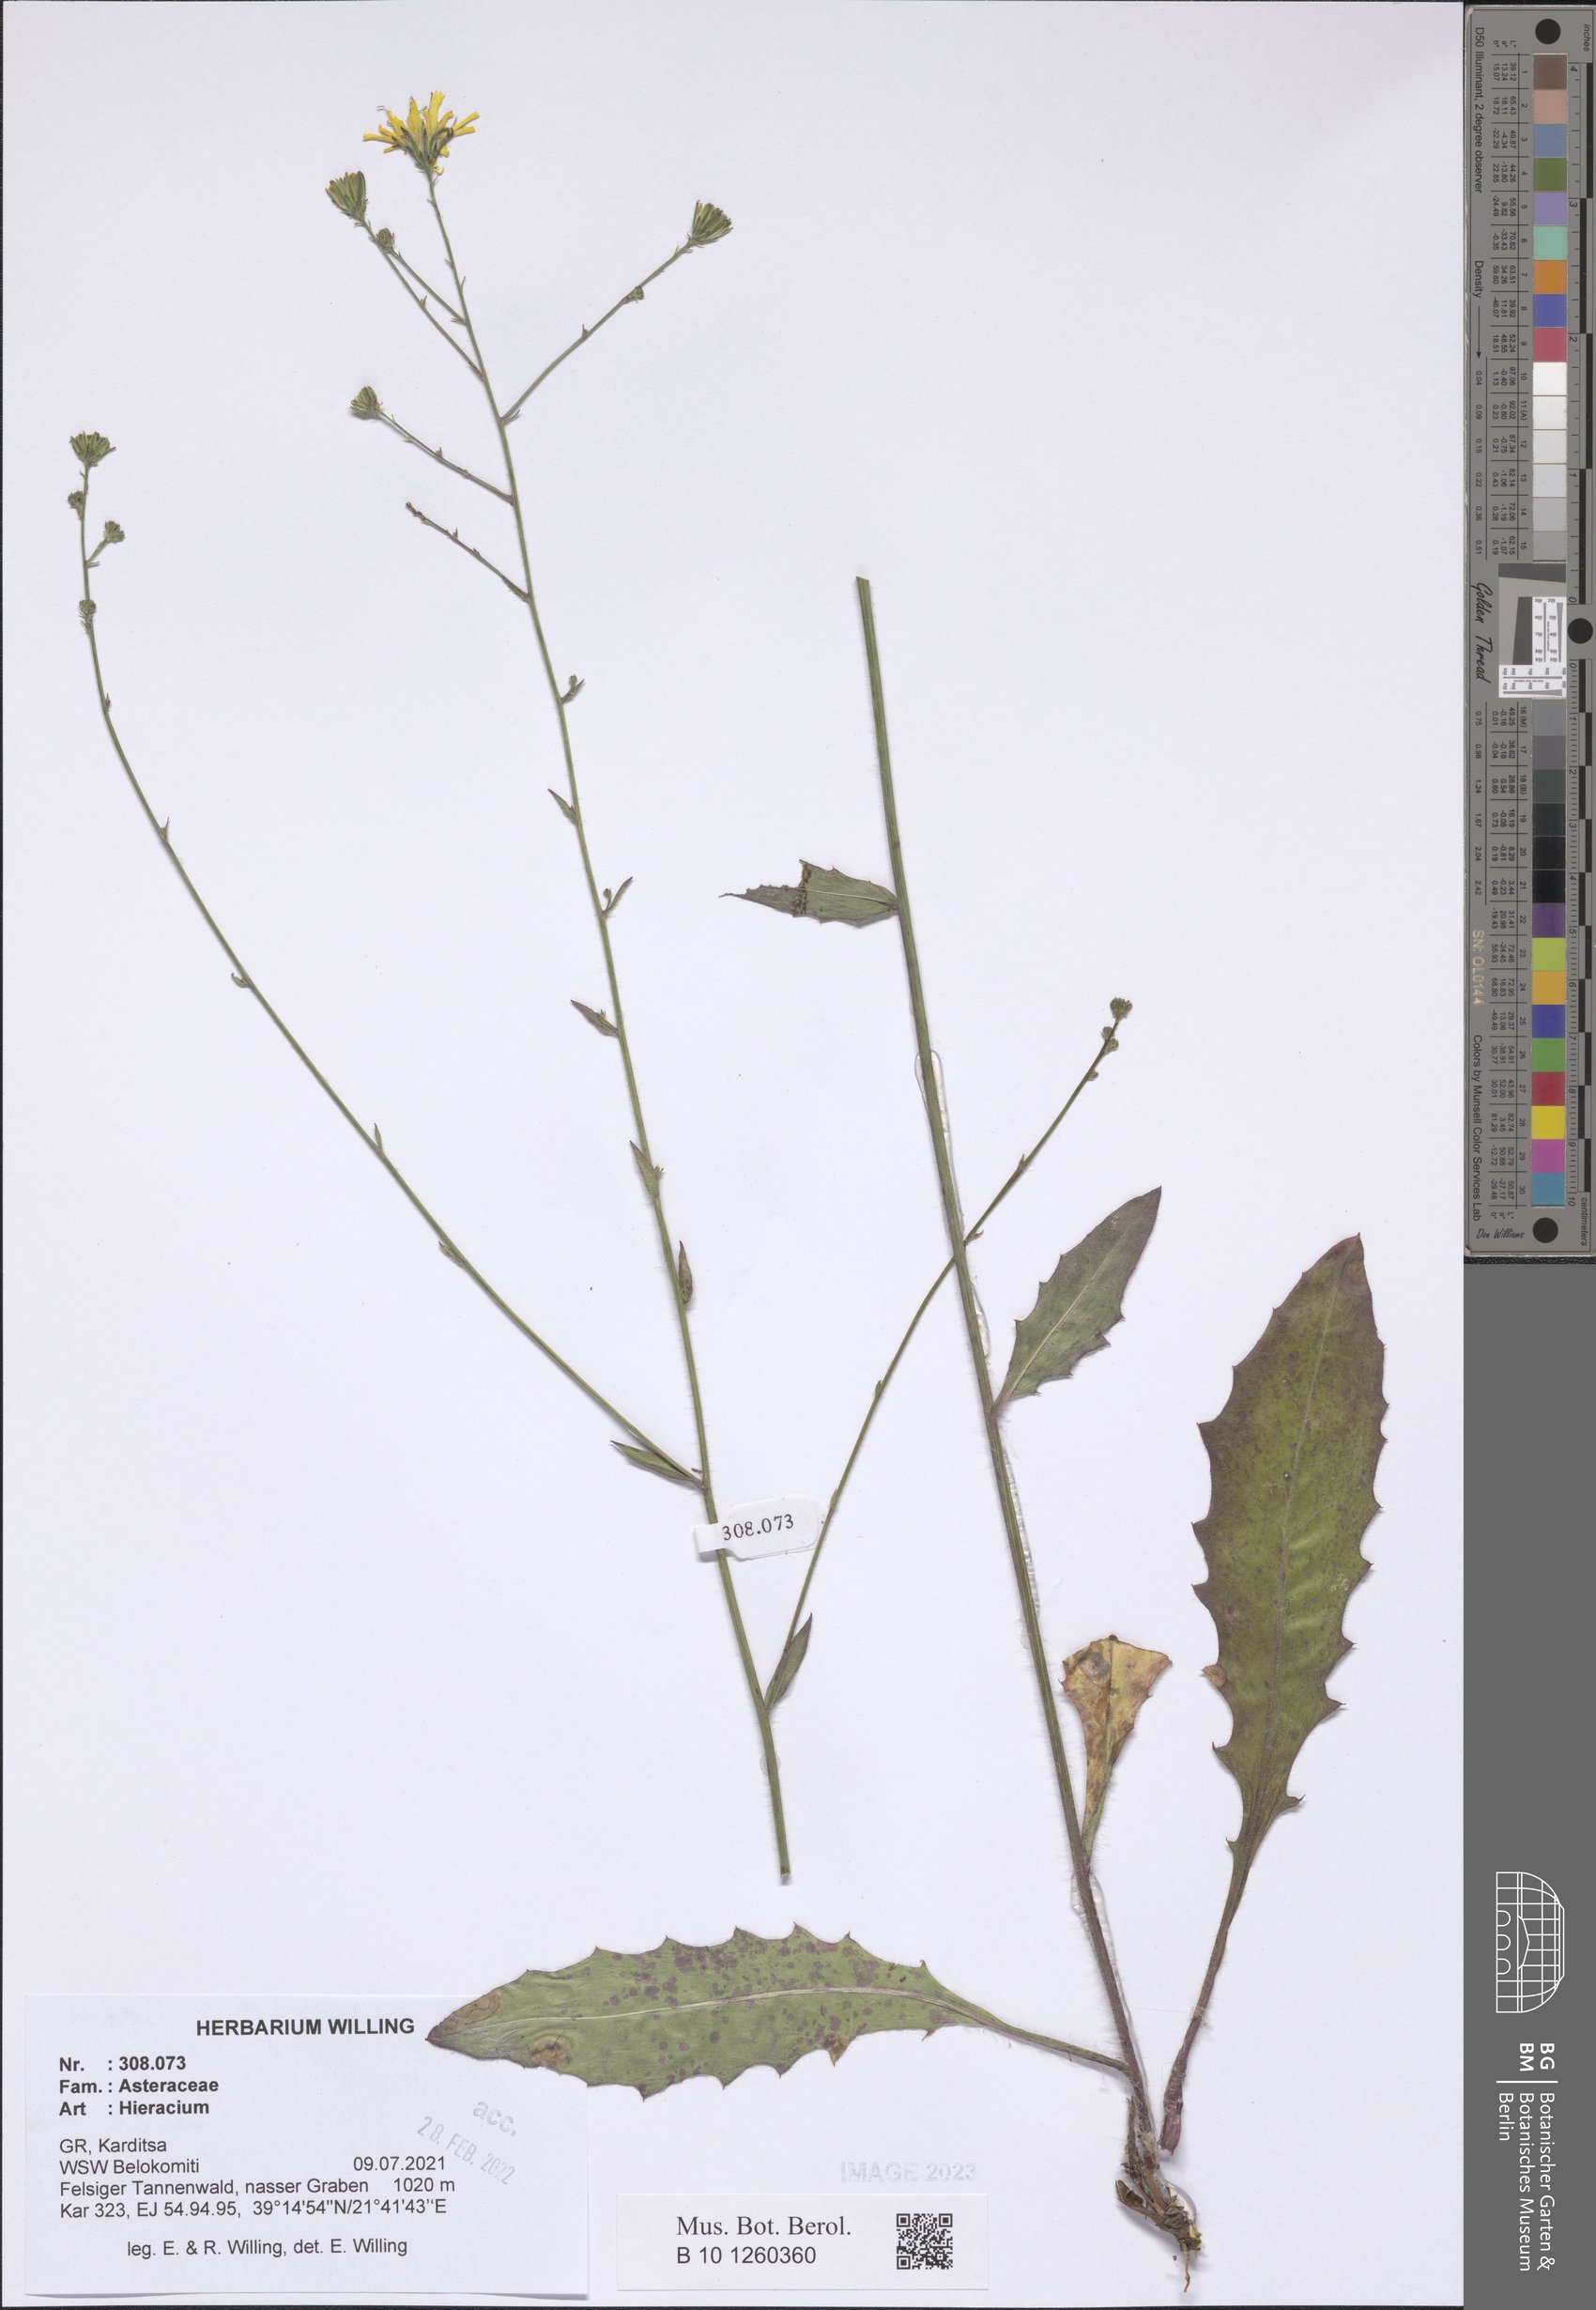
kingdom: Plantae
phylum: Tracheophyta
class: Magnoliopsida
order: Asterales
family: Asteraceae
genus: Hieracium
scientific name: Hieracium
